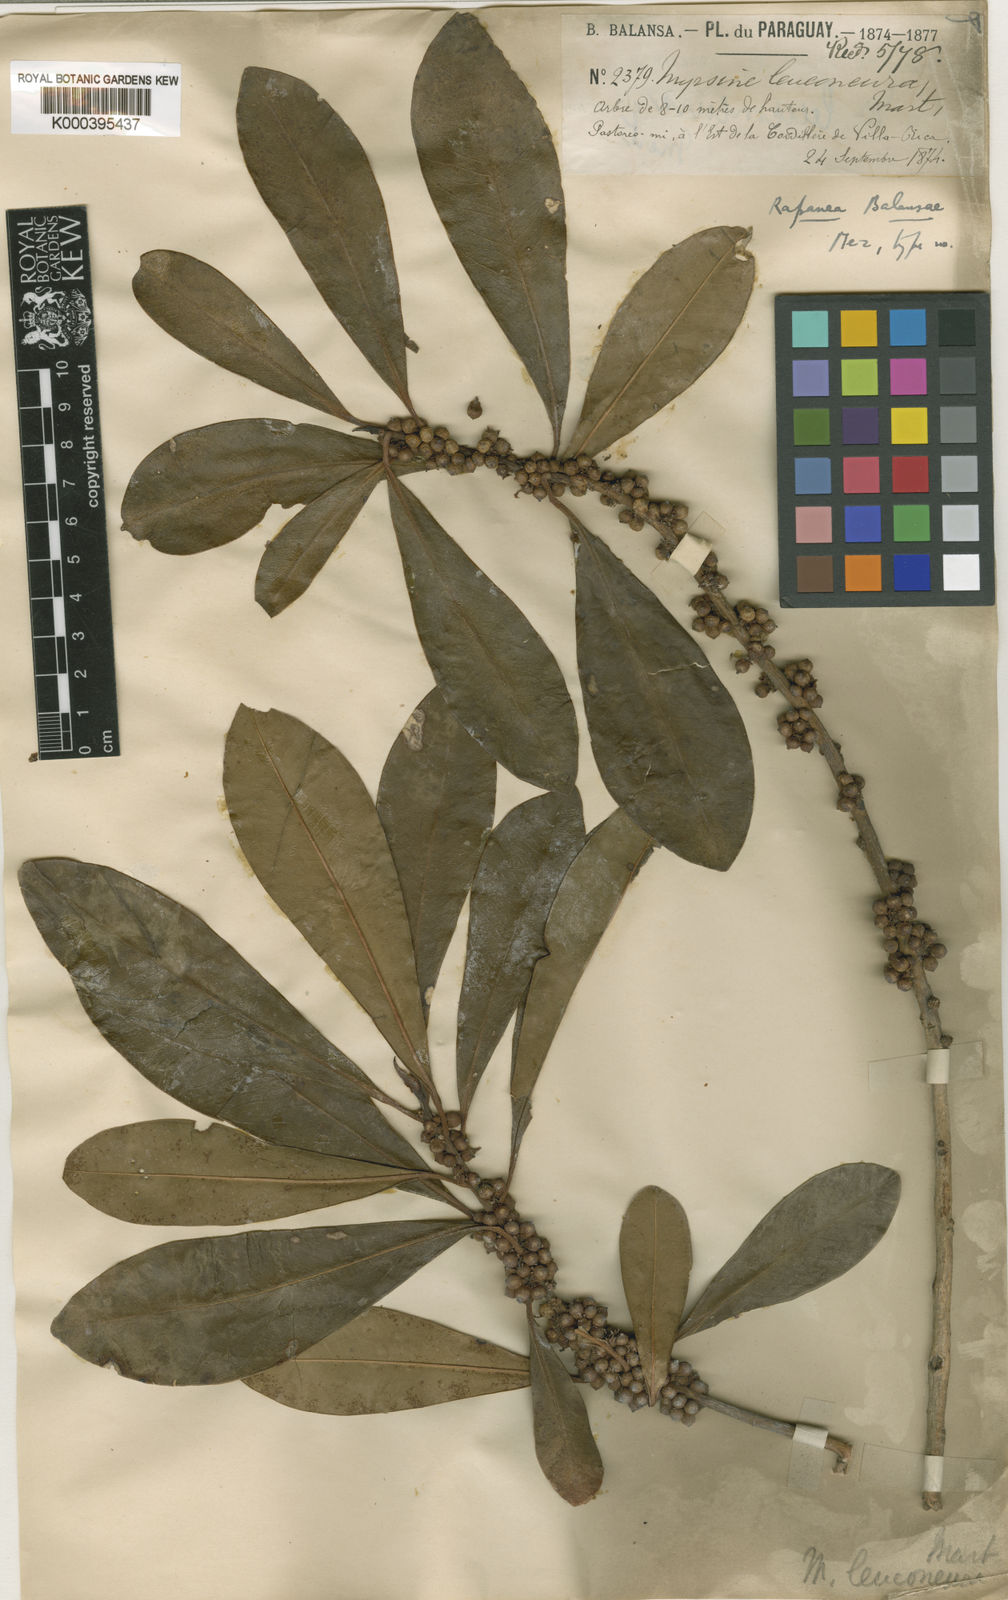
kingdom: Plantae
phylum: Tracheophyta
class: Magnoliopsida
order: Ericales
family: Primulaceae
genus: Myrsine
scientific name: Myrsine balansae
